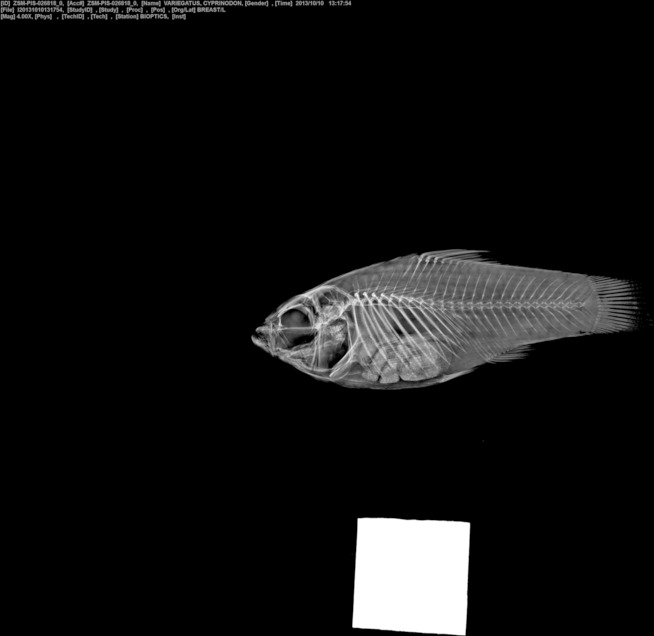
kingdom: Animalia
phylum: Chordata
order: Cyprinodontiformes
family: Cyprinodontidae
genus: Cyprinodon
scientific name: Cyprinodon variegatus
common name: Sheepshead minnow
